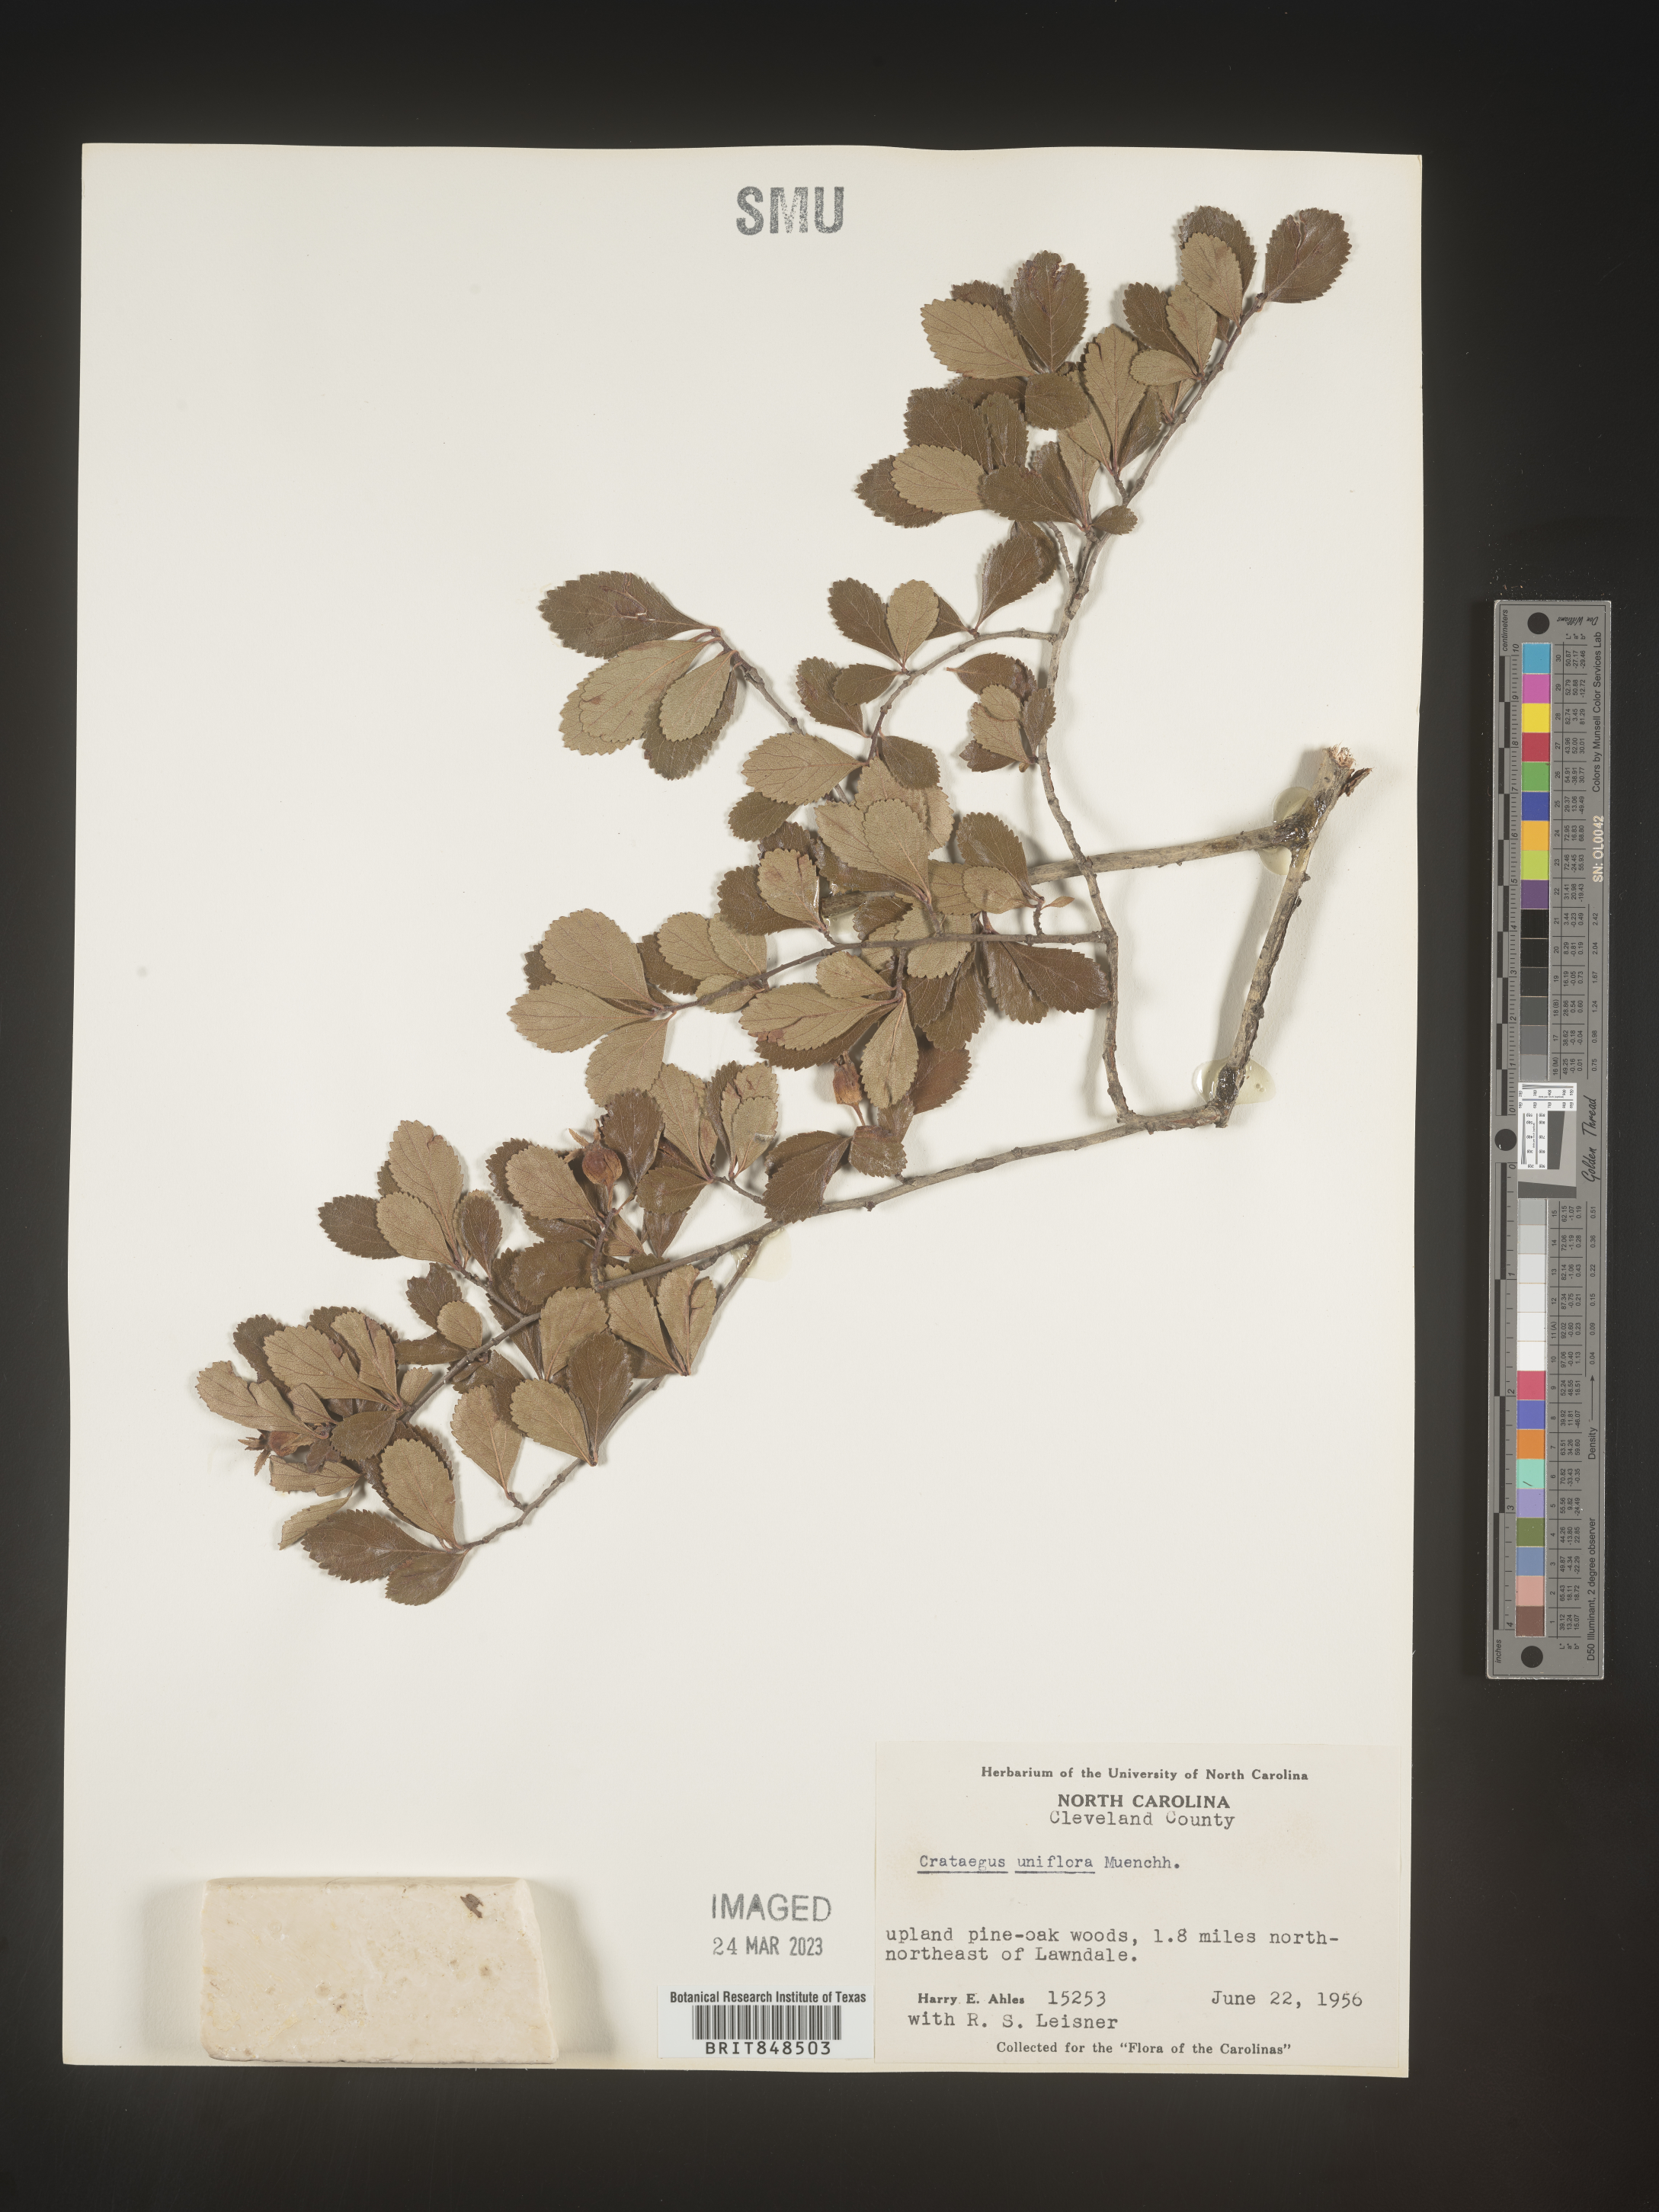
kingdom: Plantae
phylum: Tracheophyta
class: Magnoliopsida
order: Rosales
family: Rosaceae
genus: Crataegus
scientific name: Crataegus uniflora
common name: One-flower hawthorn
